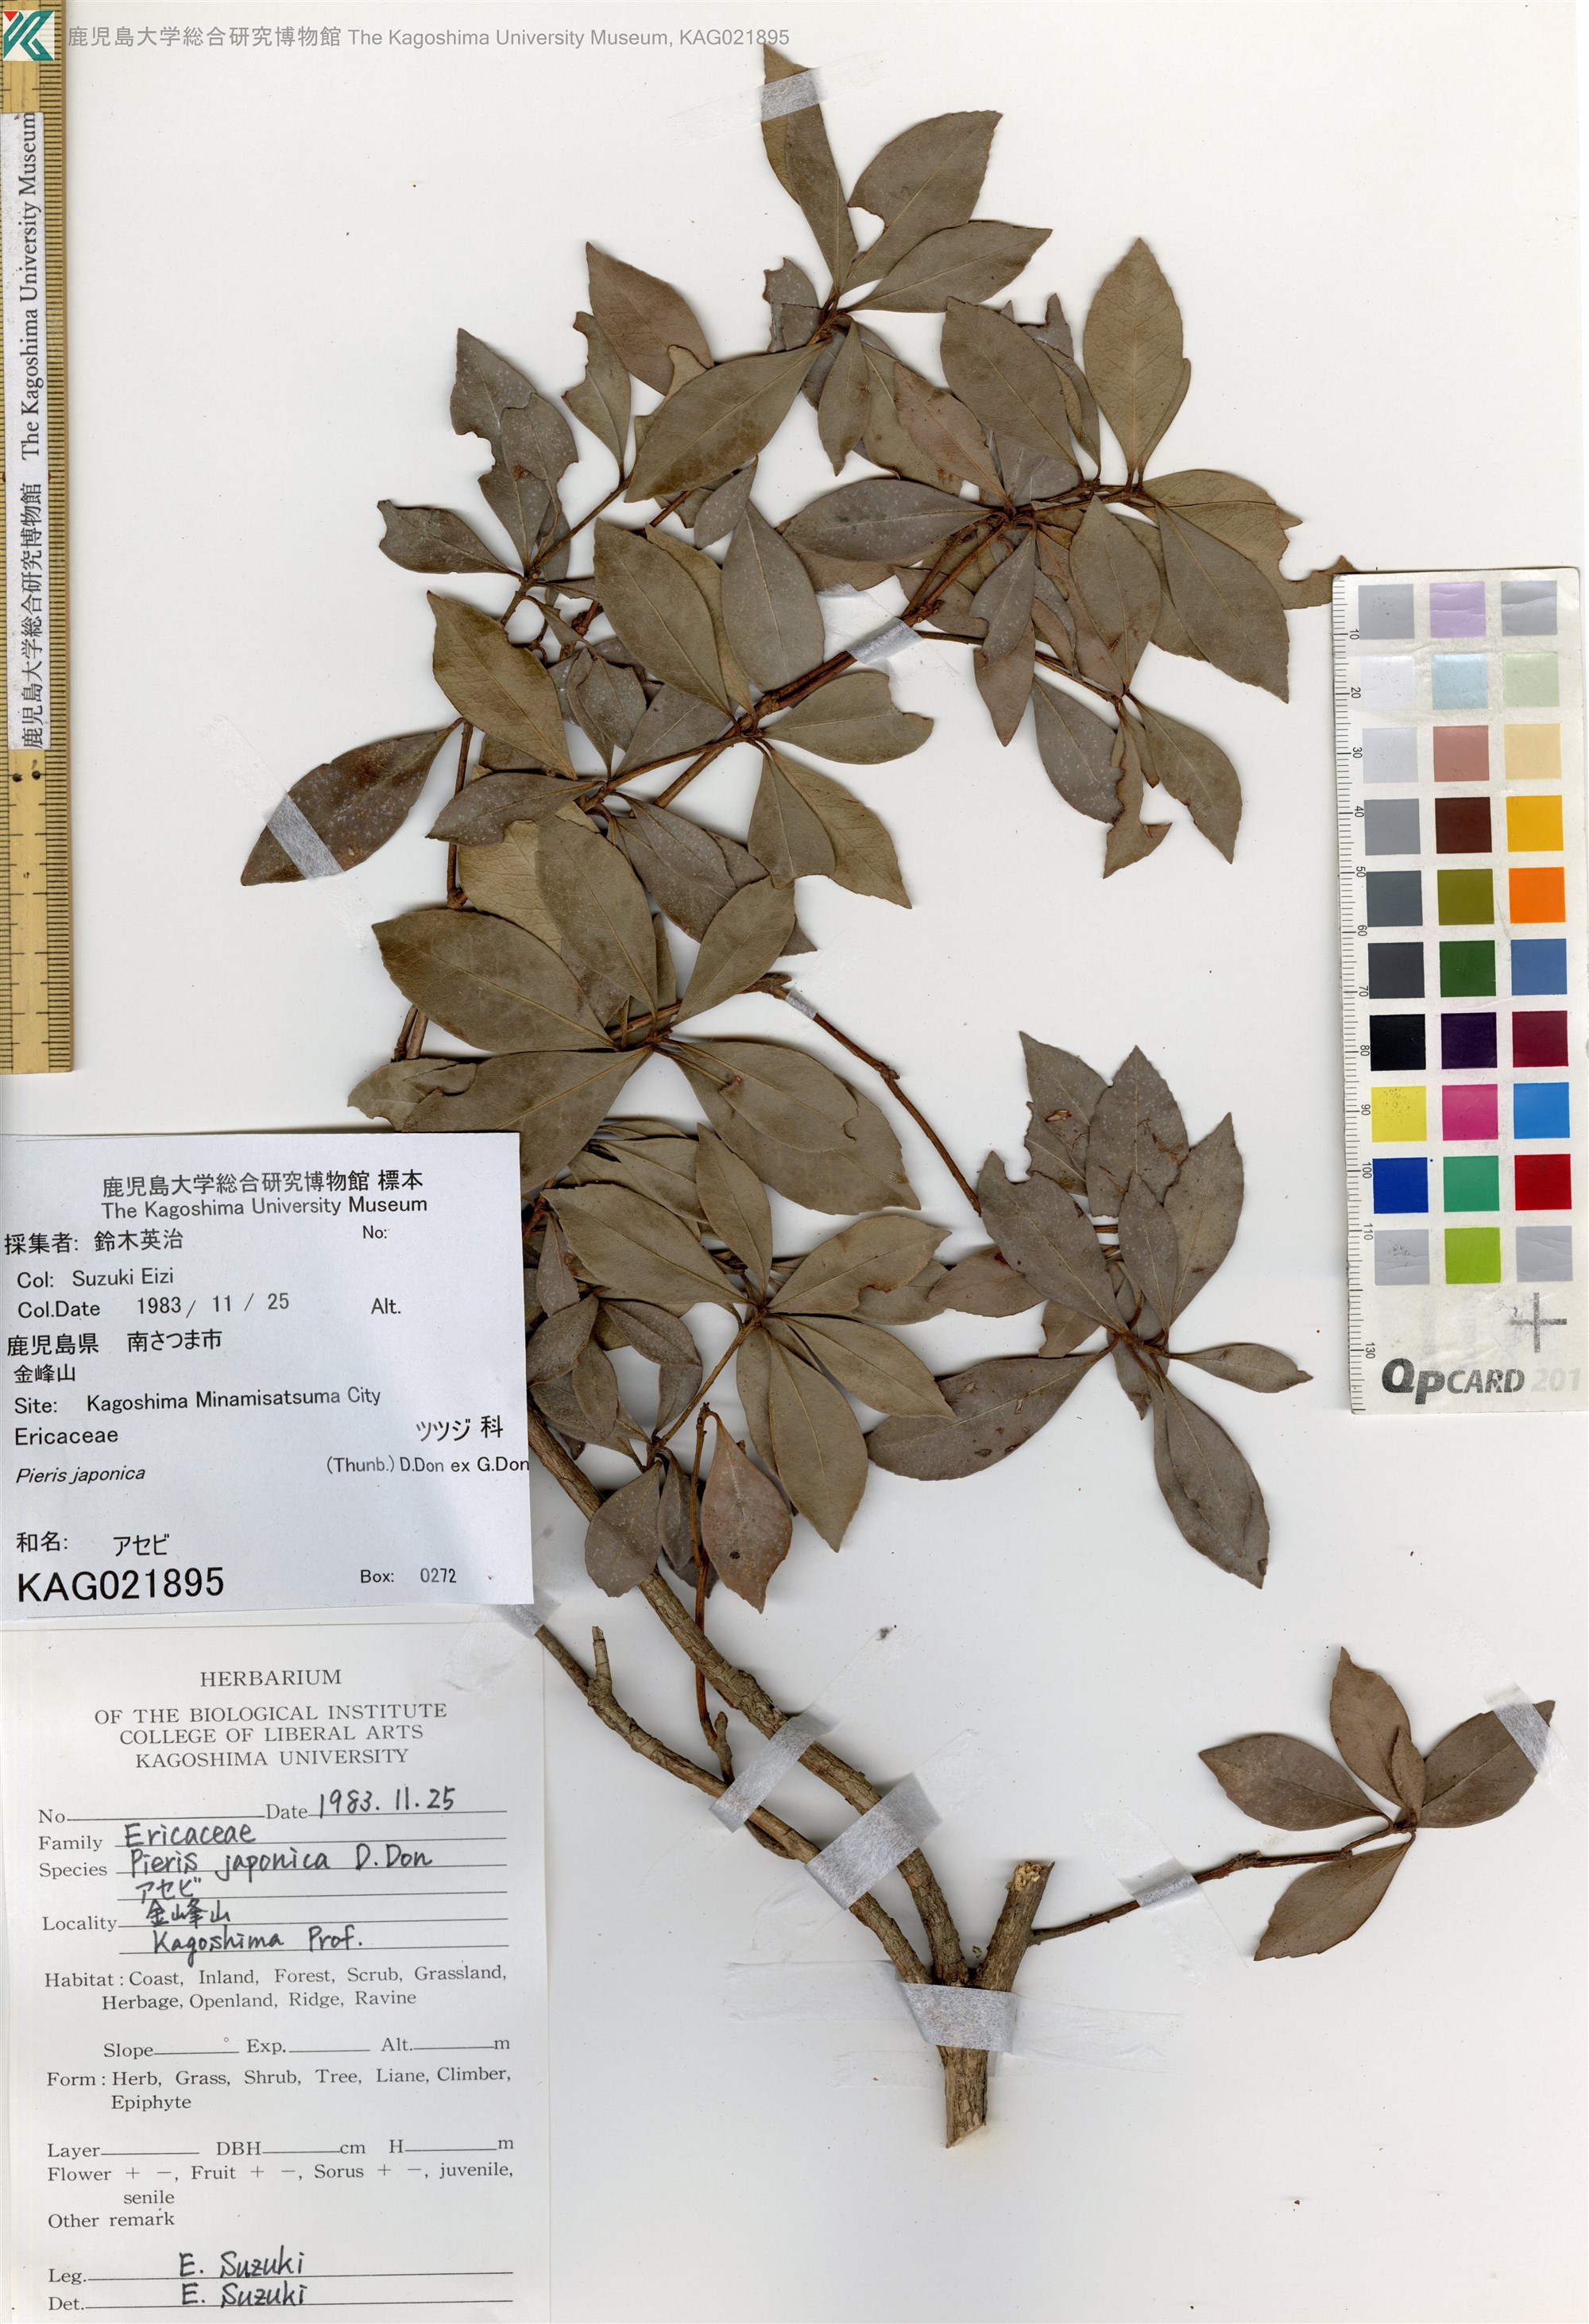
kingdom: Plantae
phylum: Tracheophyta
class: Magnoliopsida
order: Ericales
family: Ericaceae
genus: Pieris
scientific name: Pieris japonica
